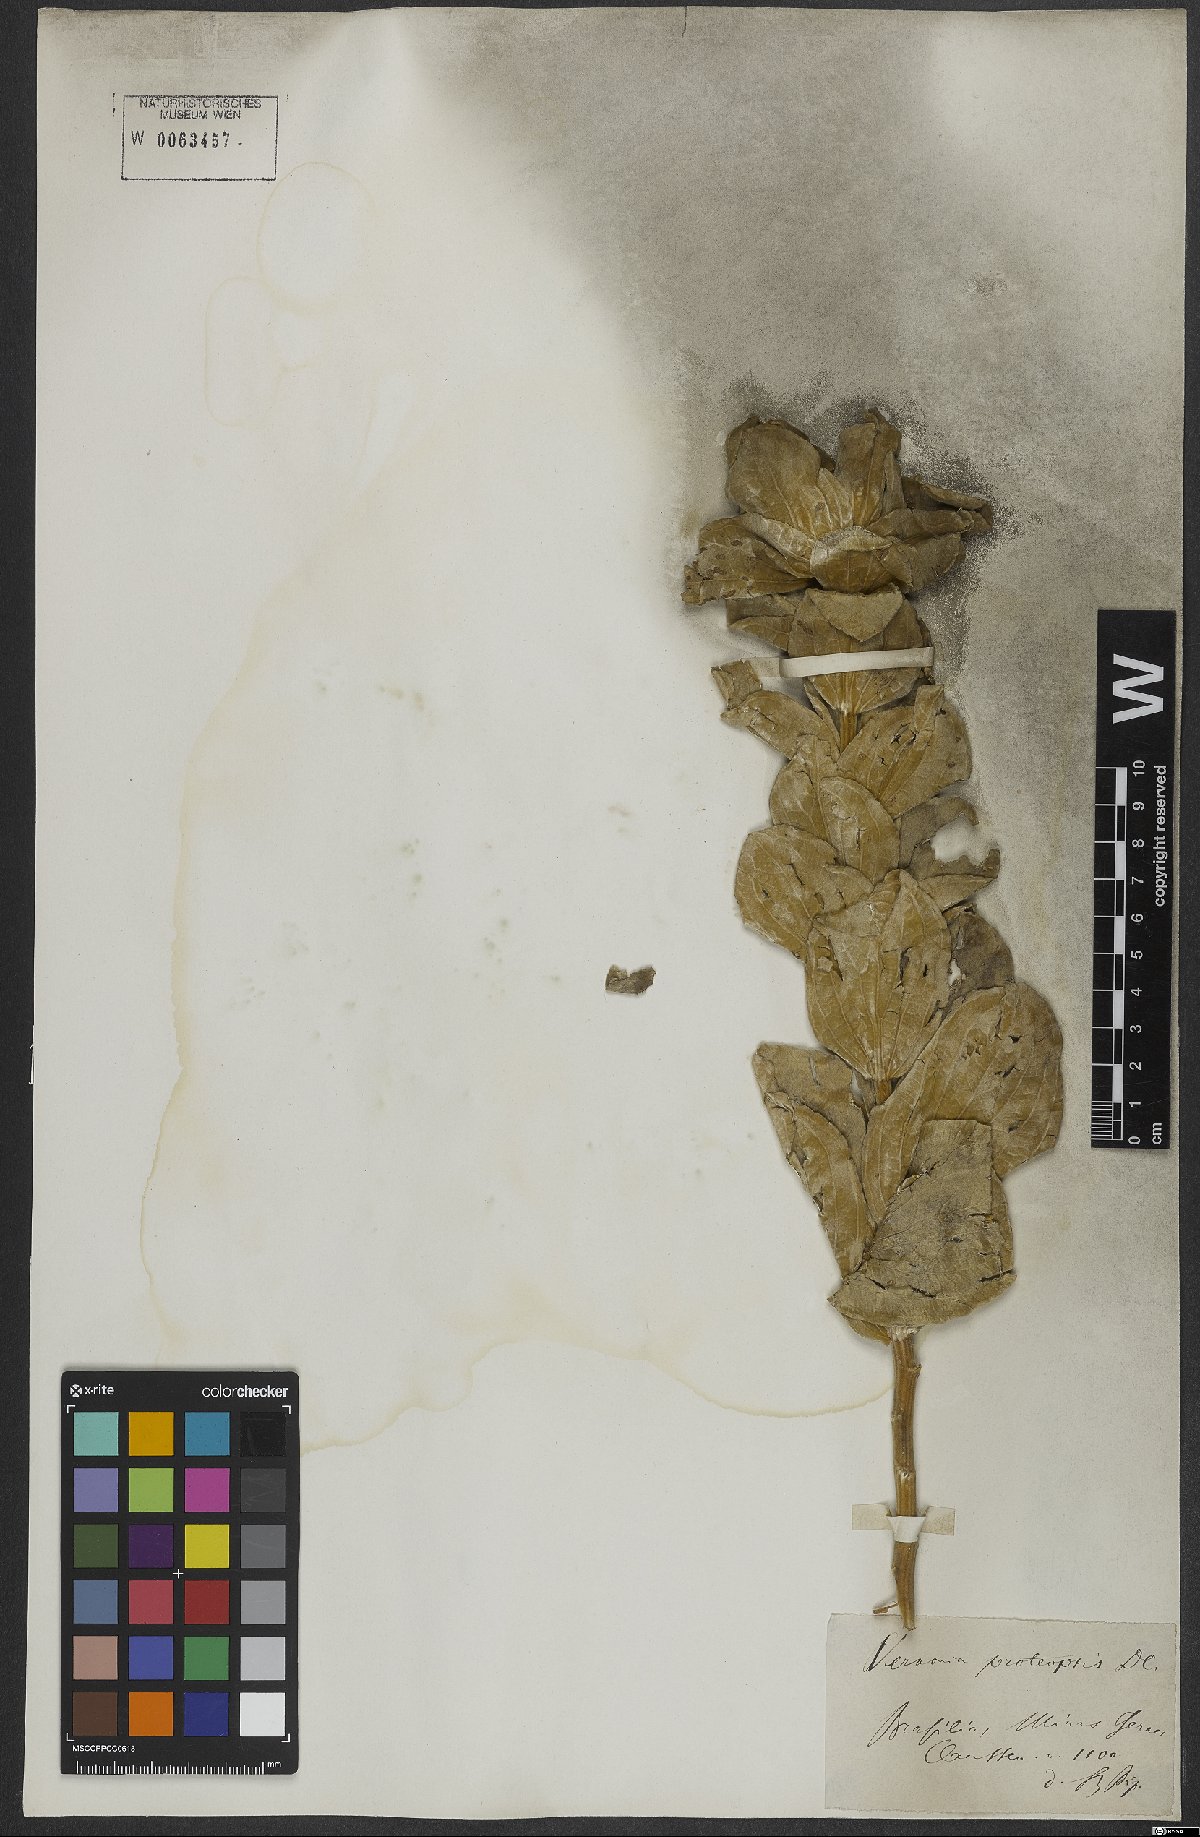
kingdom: Plantae
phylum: Tracheophyta
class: Magnoliopsida
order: Asterales
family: Asteraceae
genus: Proteopsis
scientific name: Proteopsis argentea
